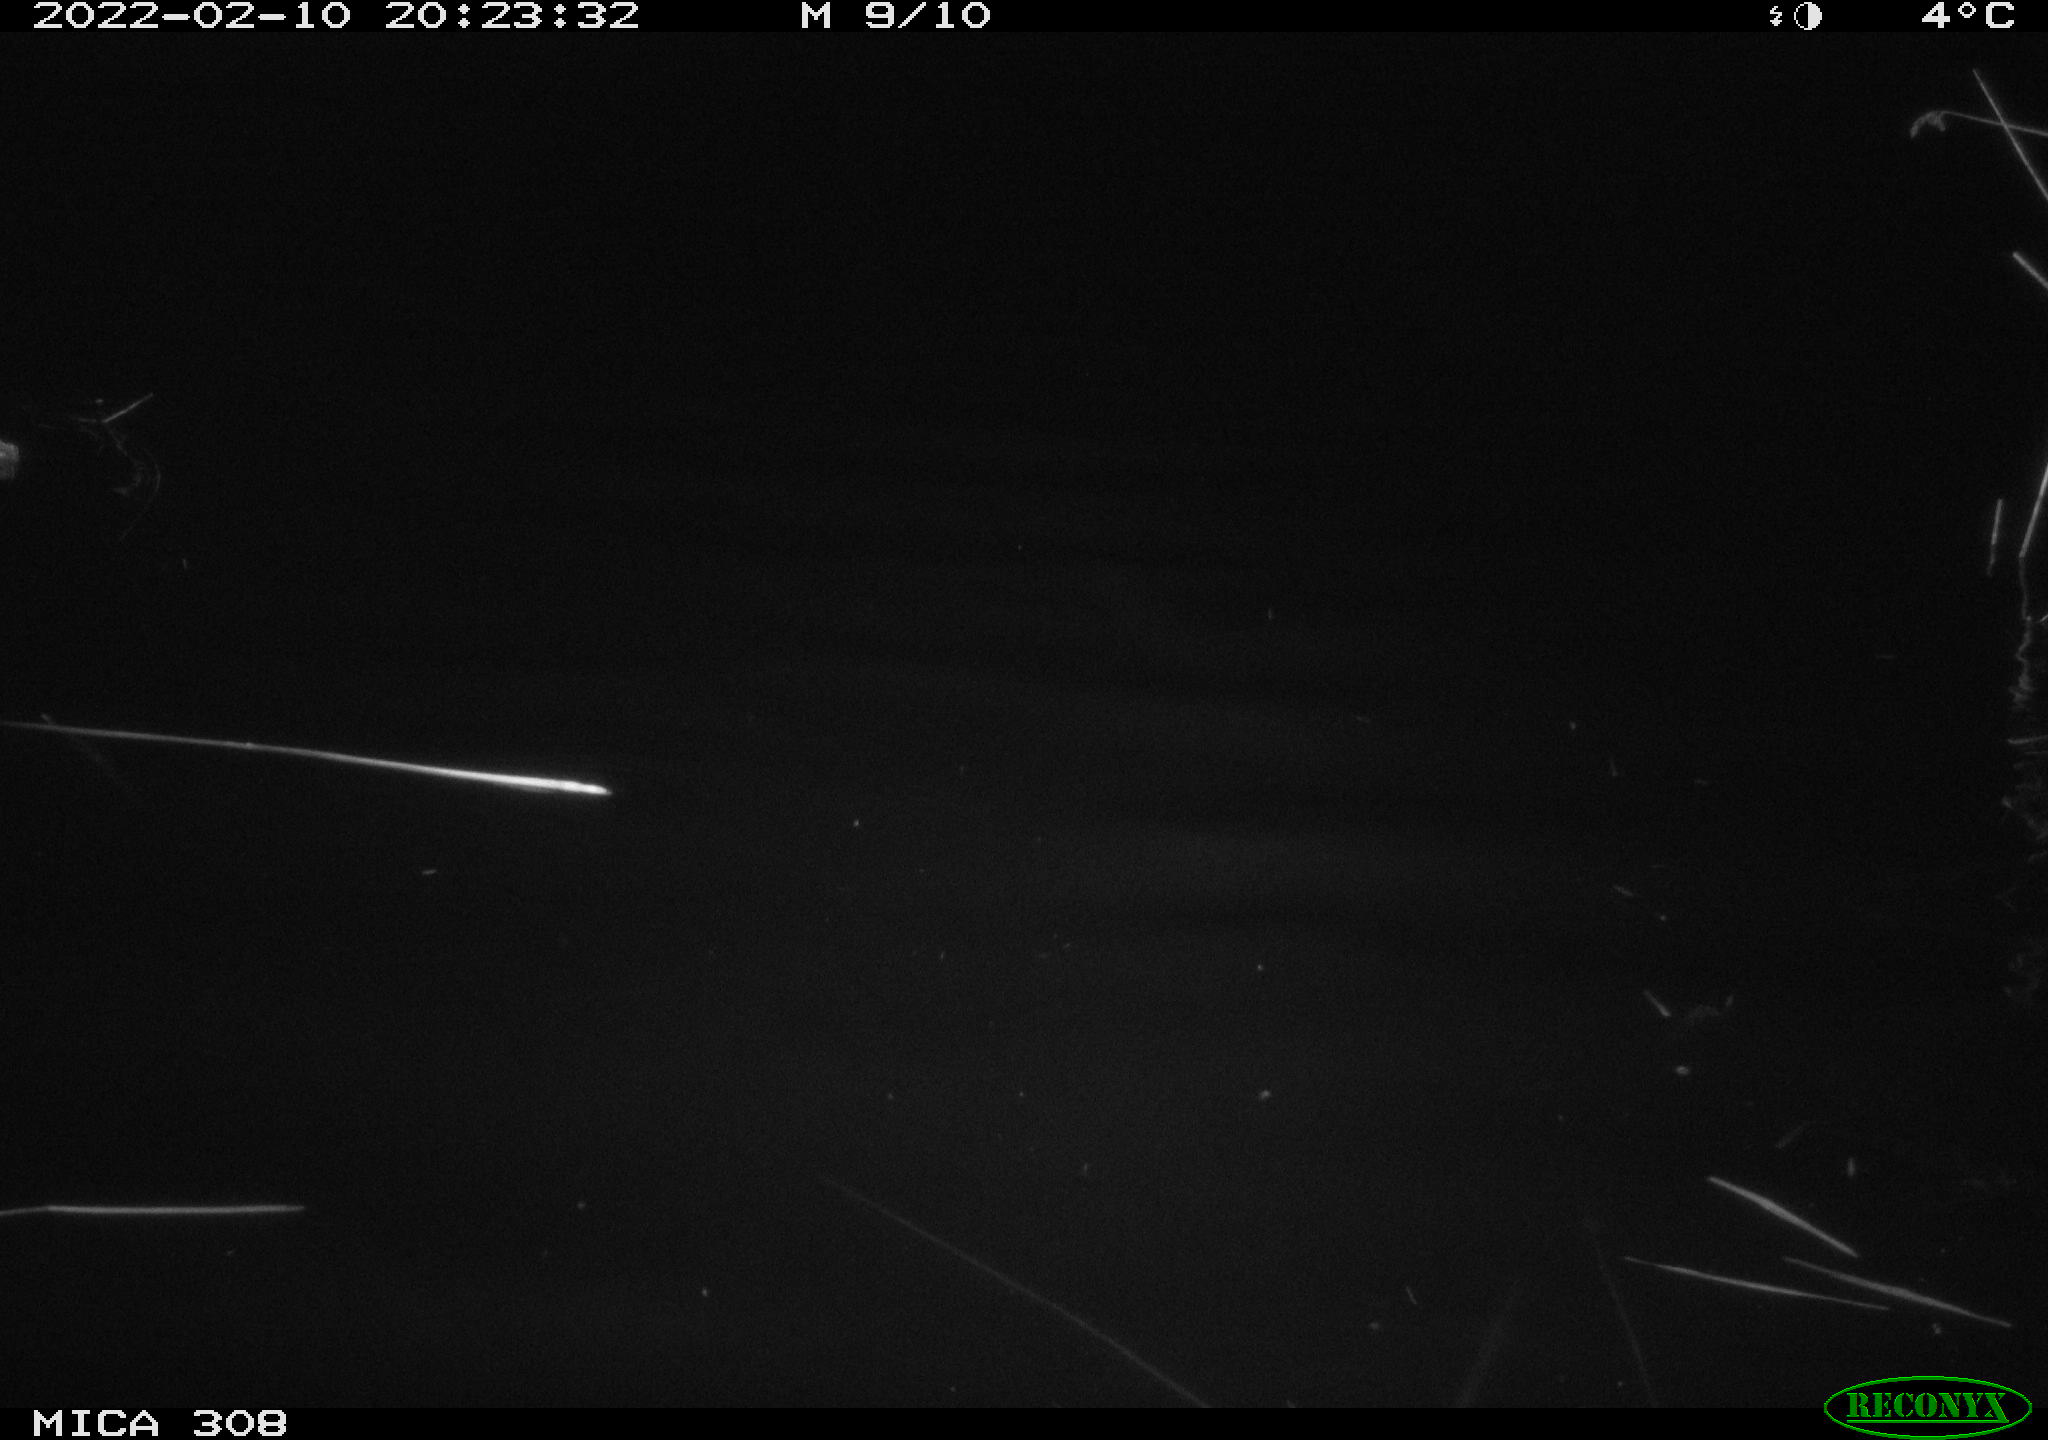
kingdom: Animalia
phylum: Chordata
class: Aves
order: Anseriformes
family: Anatidae
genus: Anas
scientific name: Anas platyrhynchos
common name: Mallard
